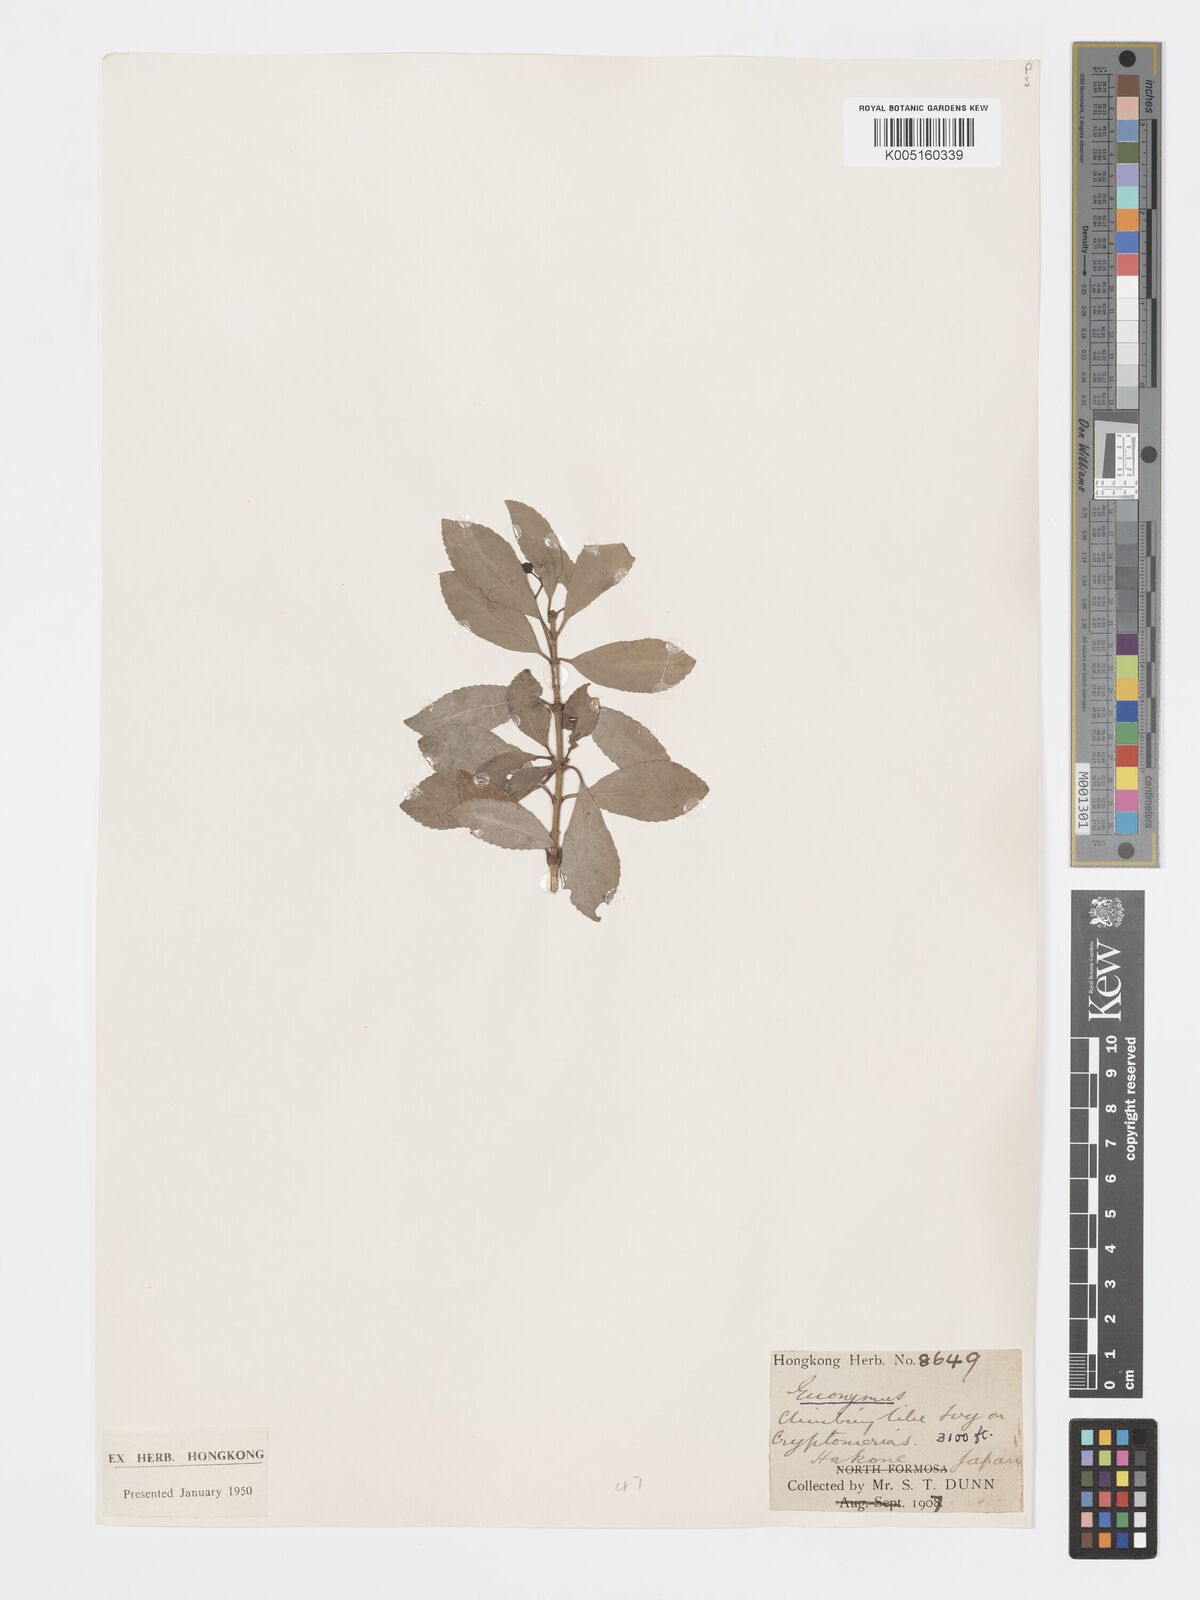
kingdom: Plantae
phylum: Tracheophyta
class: Magnoliopsida
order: Celastrales
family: Celastraceae
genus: Euonymus
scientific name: Euonymus
